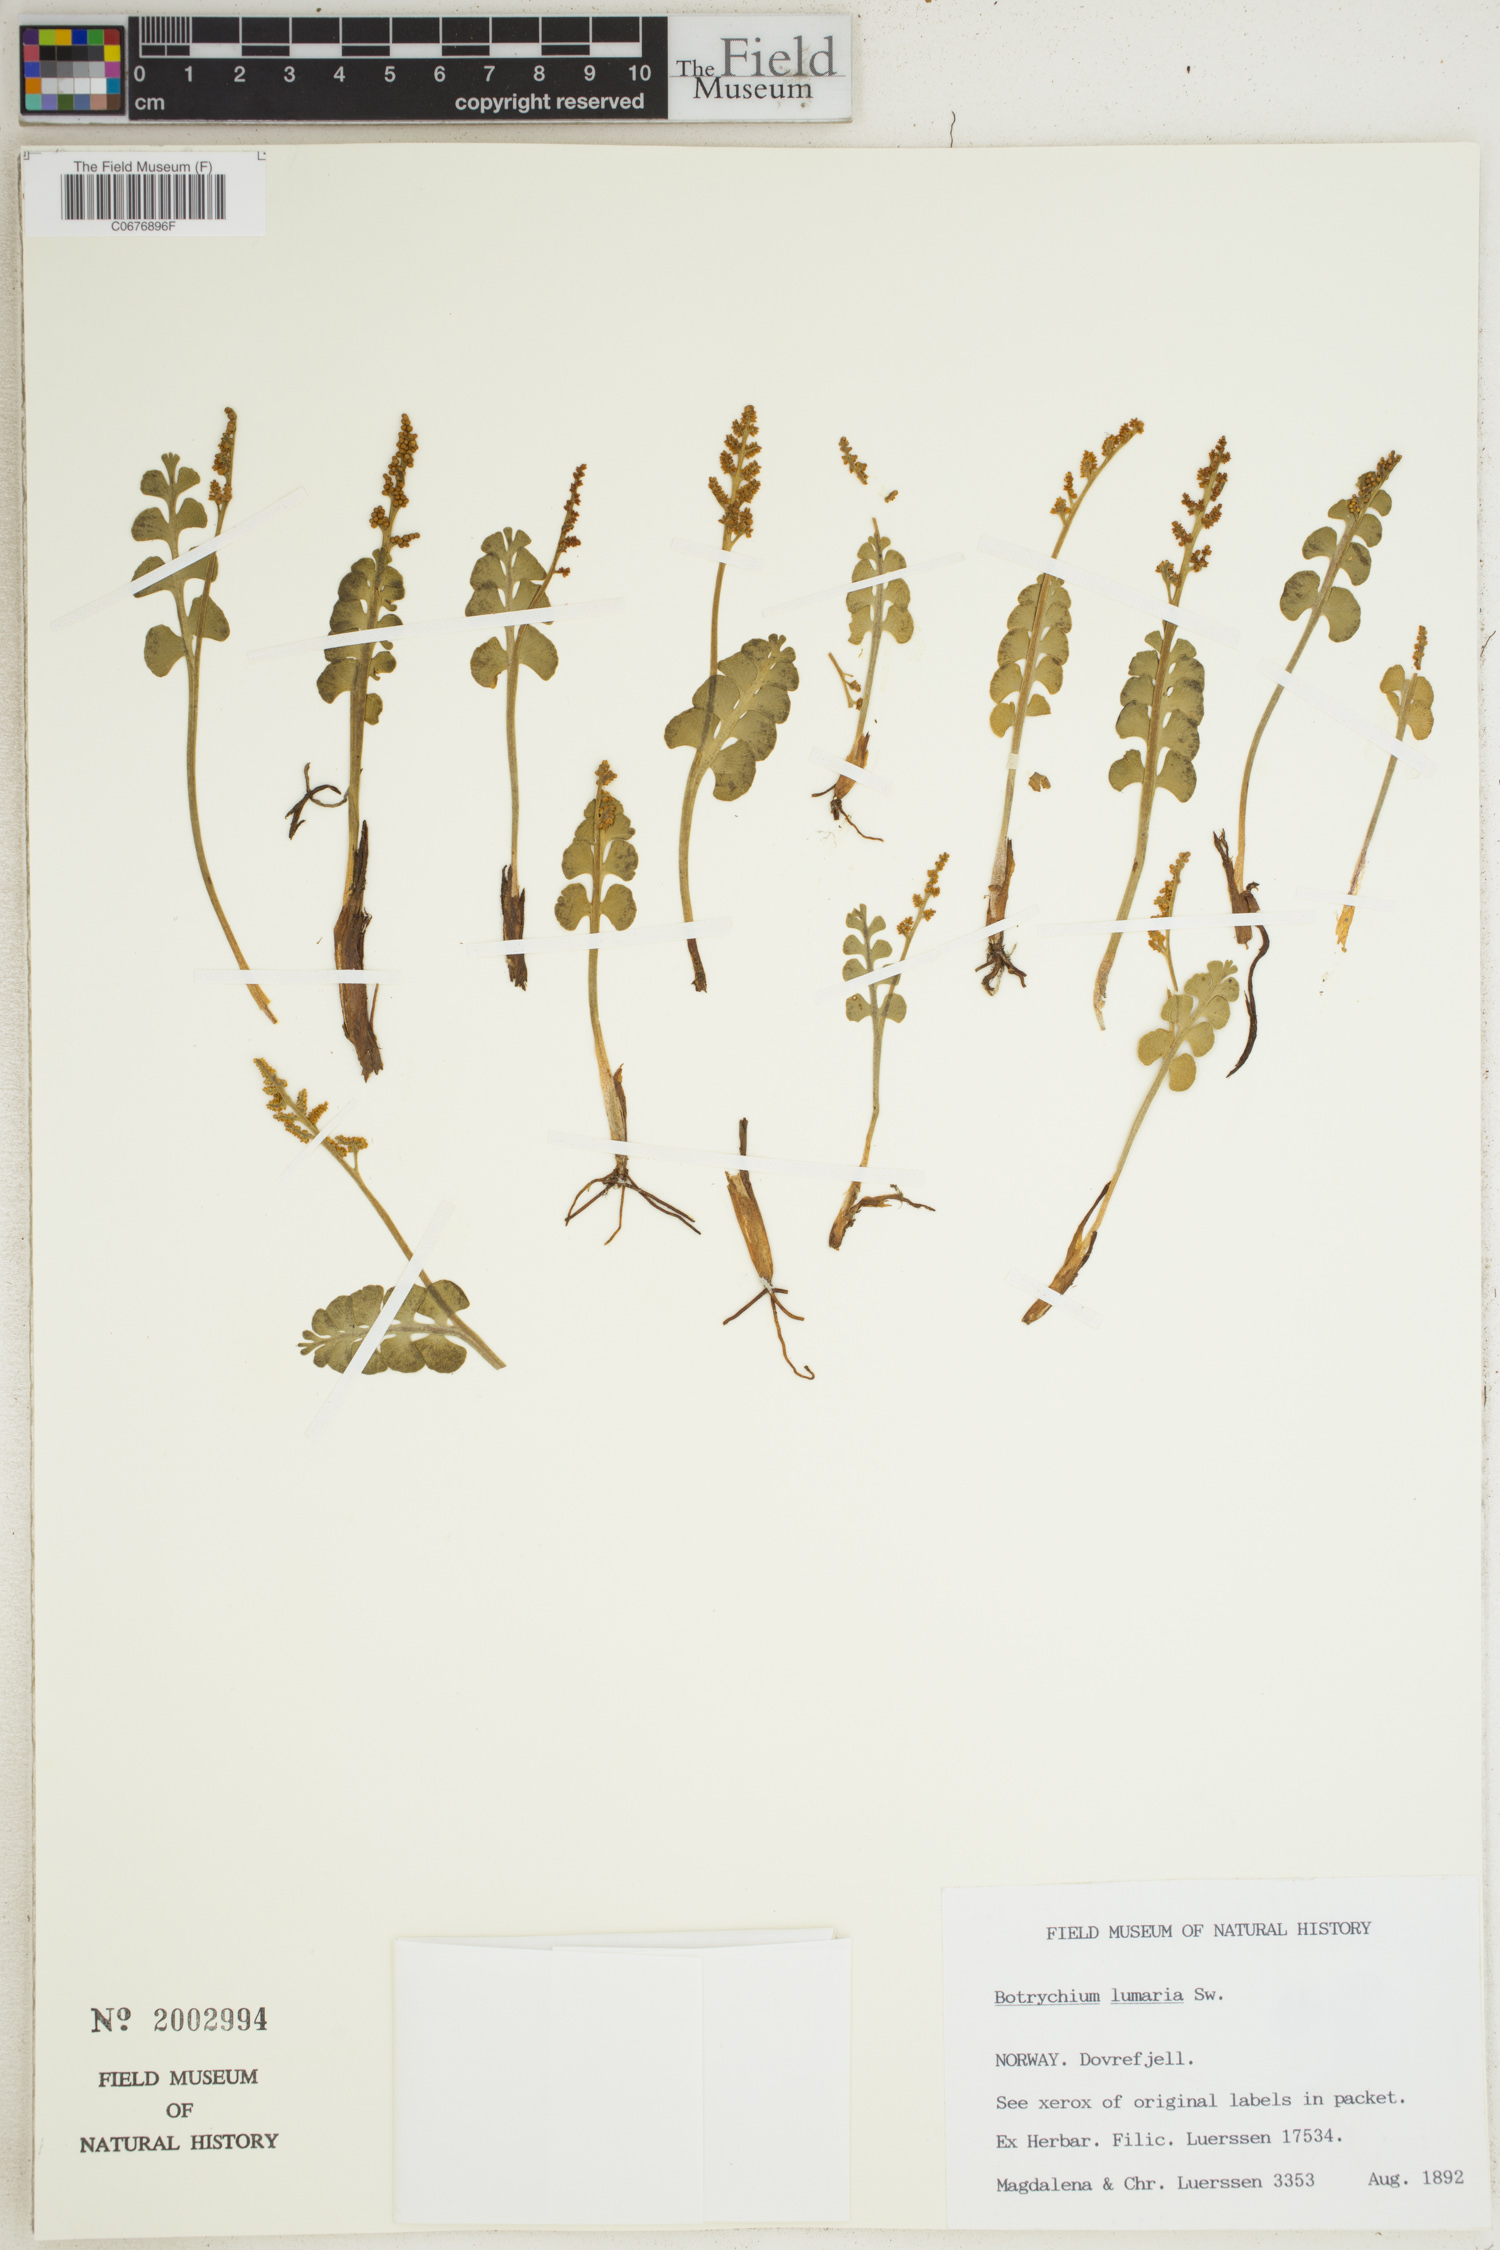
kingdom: Plantae
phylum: Tracheophyta
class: Polypodiopsida
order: Ophioglossales
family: Ophioglossaceae
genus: Botrychium
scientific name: Botrychium lunaria
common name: Moonwort
